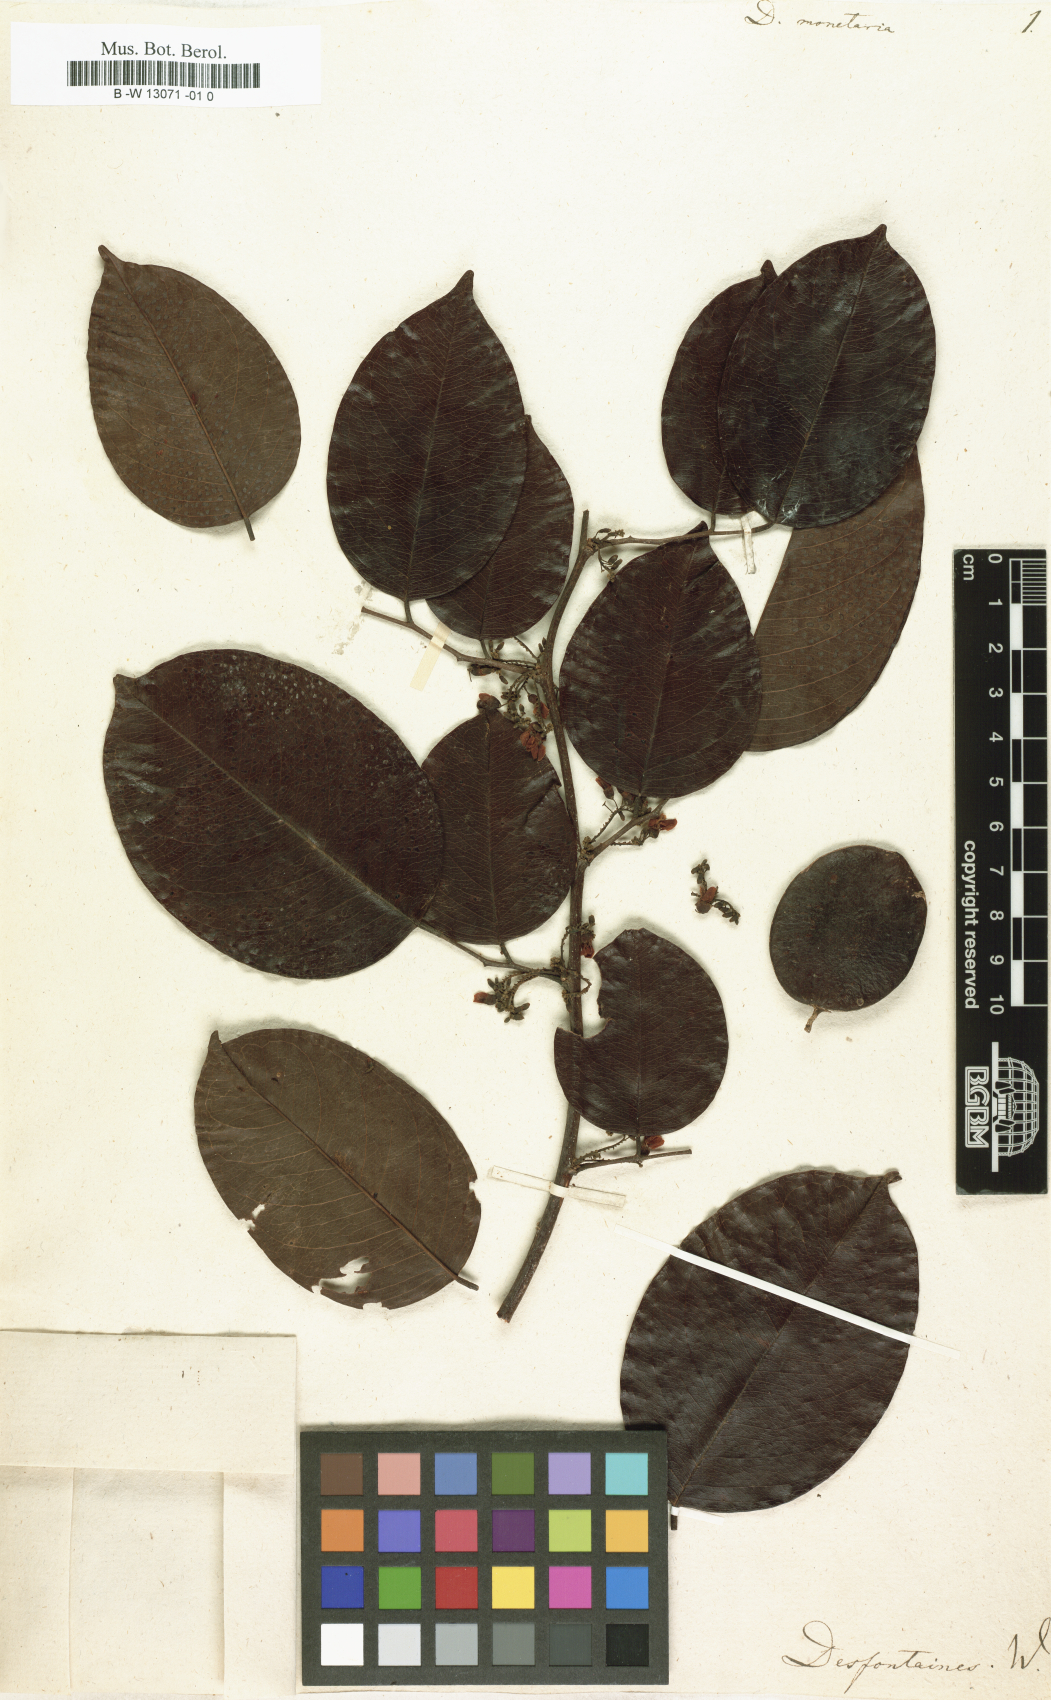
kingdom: Plantae
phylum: Tracheophyta
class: Magnoliopsida
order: Fabales
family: Fabaceae
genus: Dalbergia
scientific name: Dalbergia ovalis
